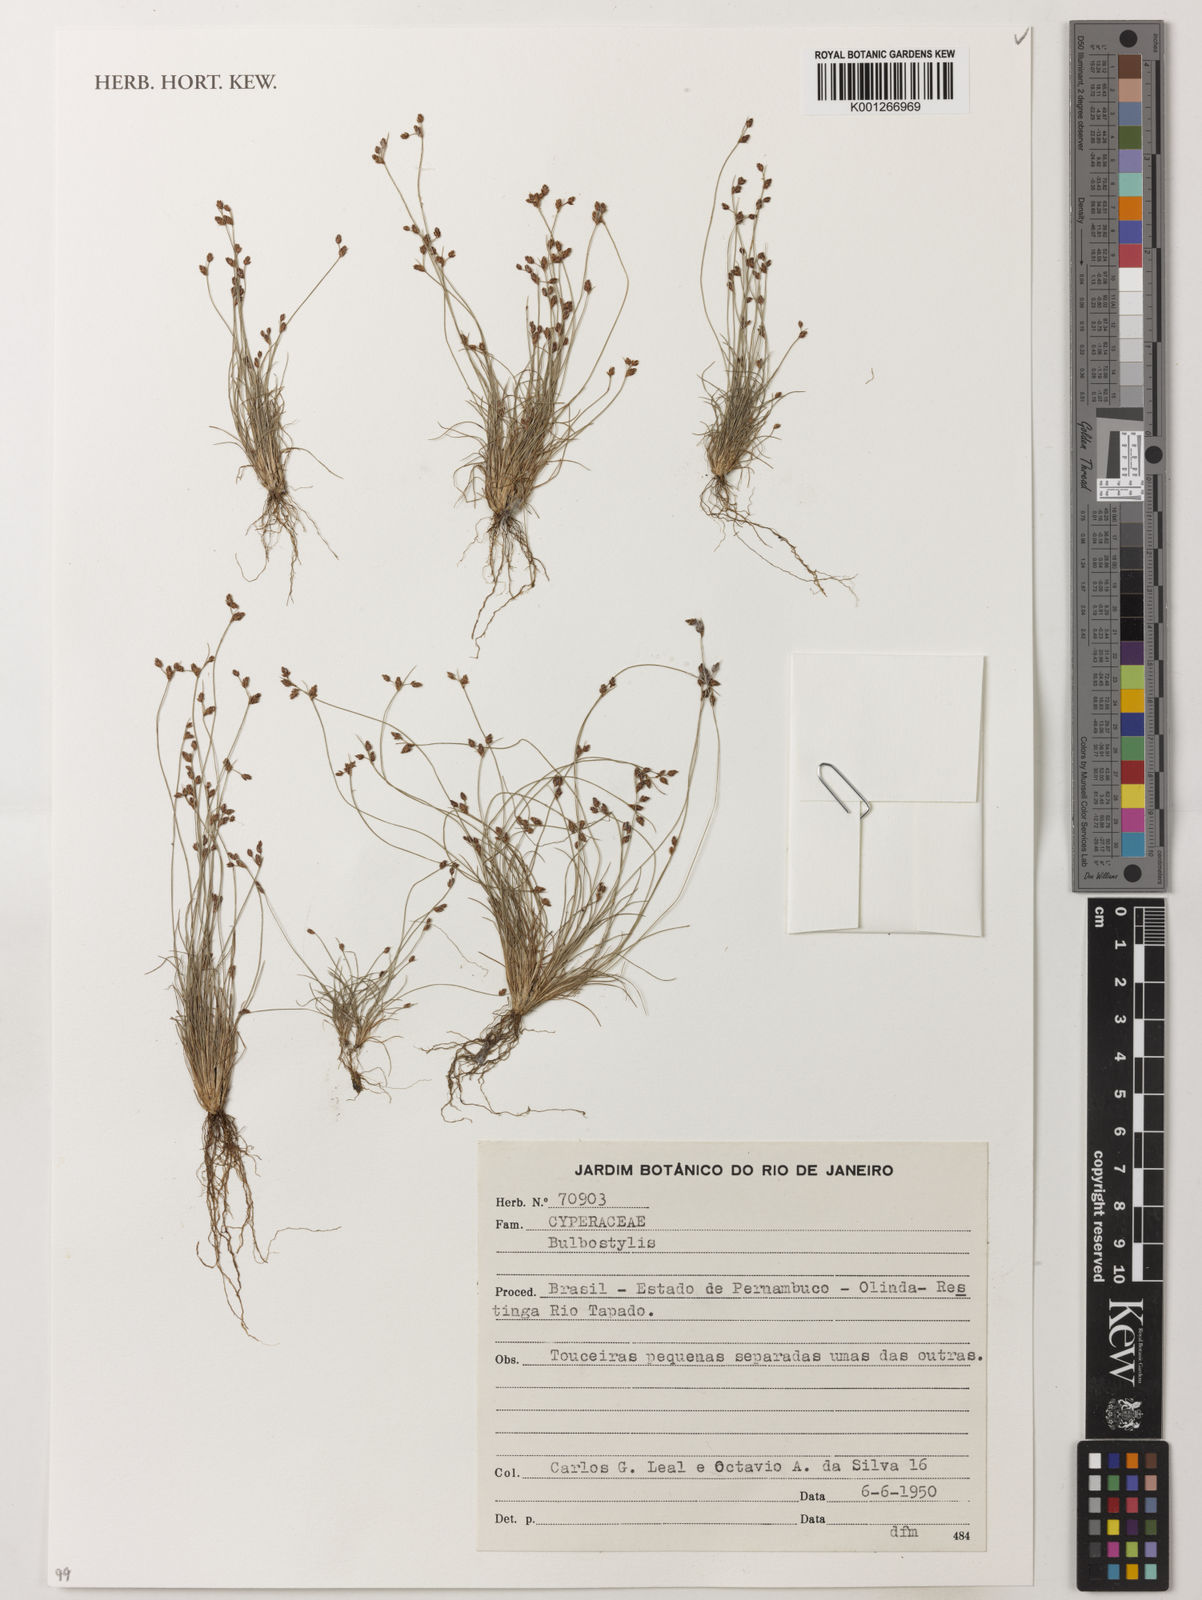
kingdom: Plantae
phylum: Tracheophyta
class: Liliopsida
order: Poales
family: Cyperaceae
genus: Bulbostylis
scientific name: Bulbostylis
